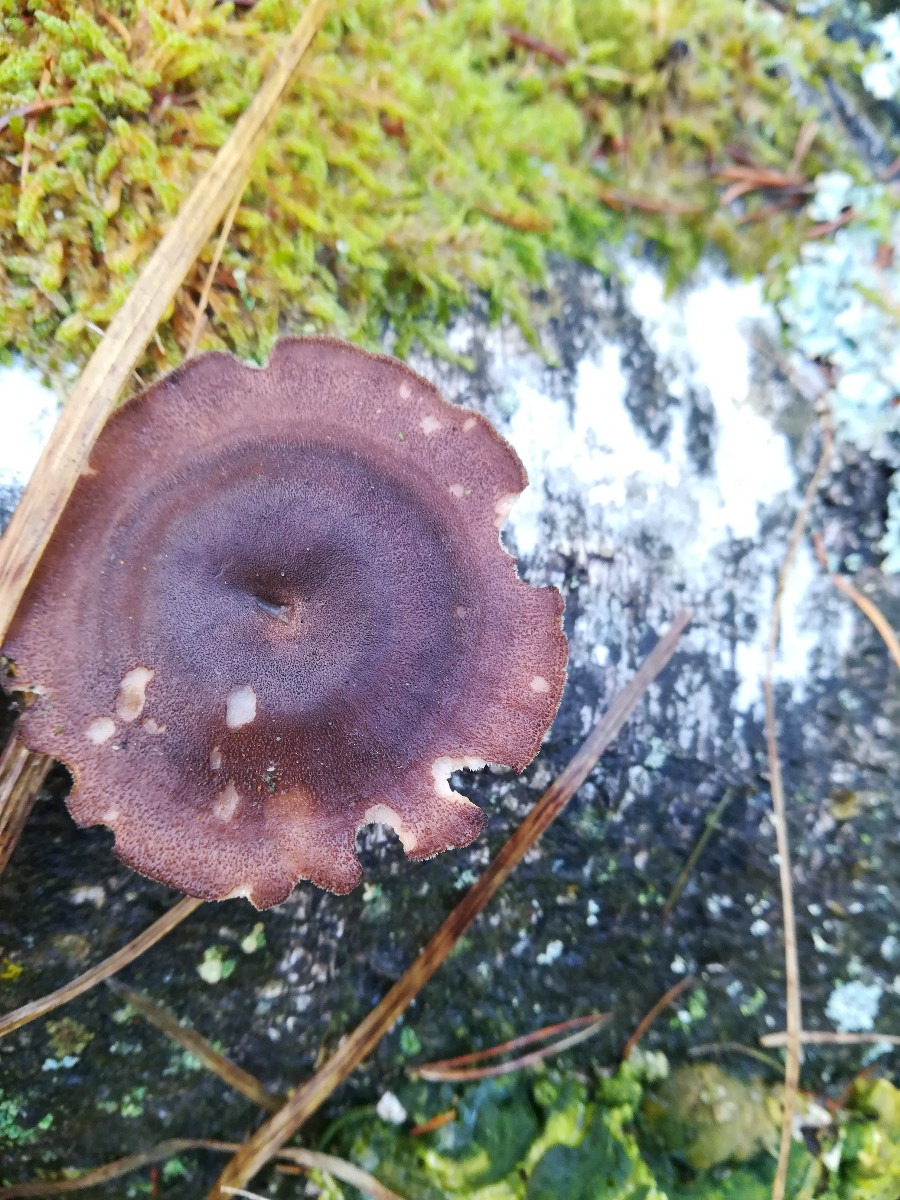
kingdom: Fungi
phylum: Basidiomycota
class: Agaricomycetes
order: Polyporales
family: Polyporaceae
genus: Lentinus
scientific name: Lentinus brumalis
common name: vinter-stilkporesvamp
